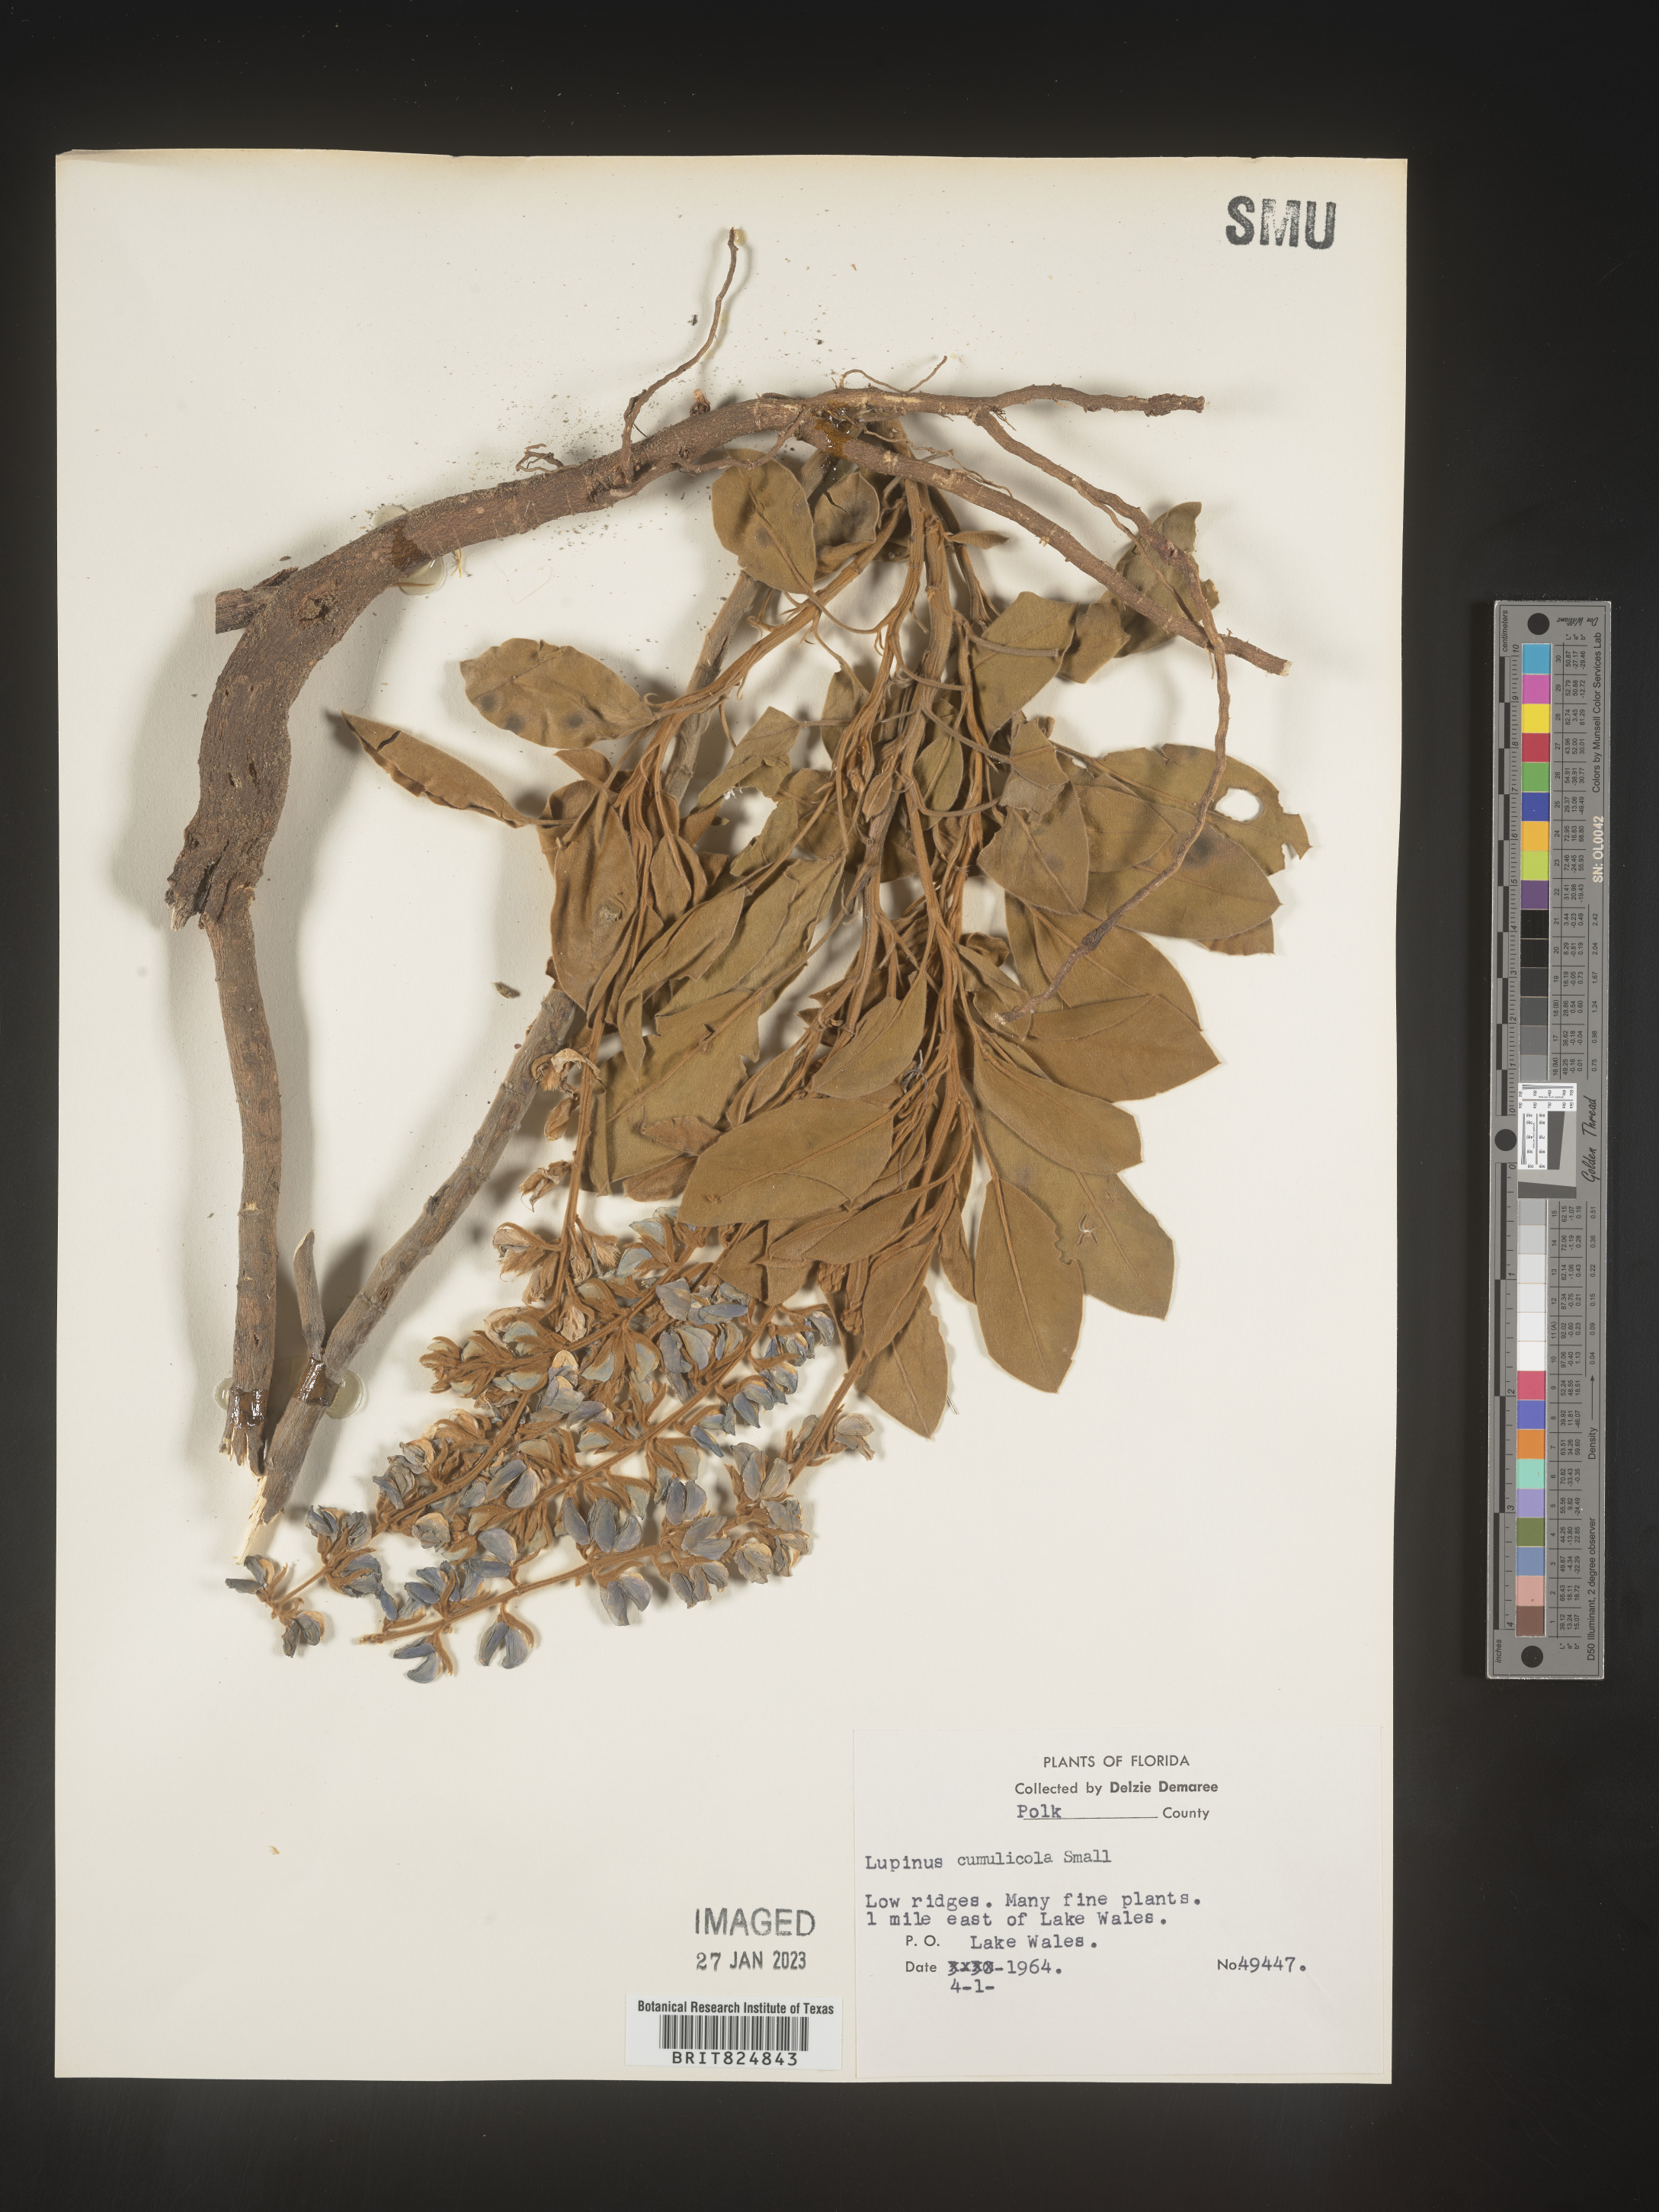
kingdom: Plantae
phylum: Tracheophyta
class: Magnoliopsida
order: Fabales
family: Fabaceae
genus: Lupinus
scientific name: Lupinus
